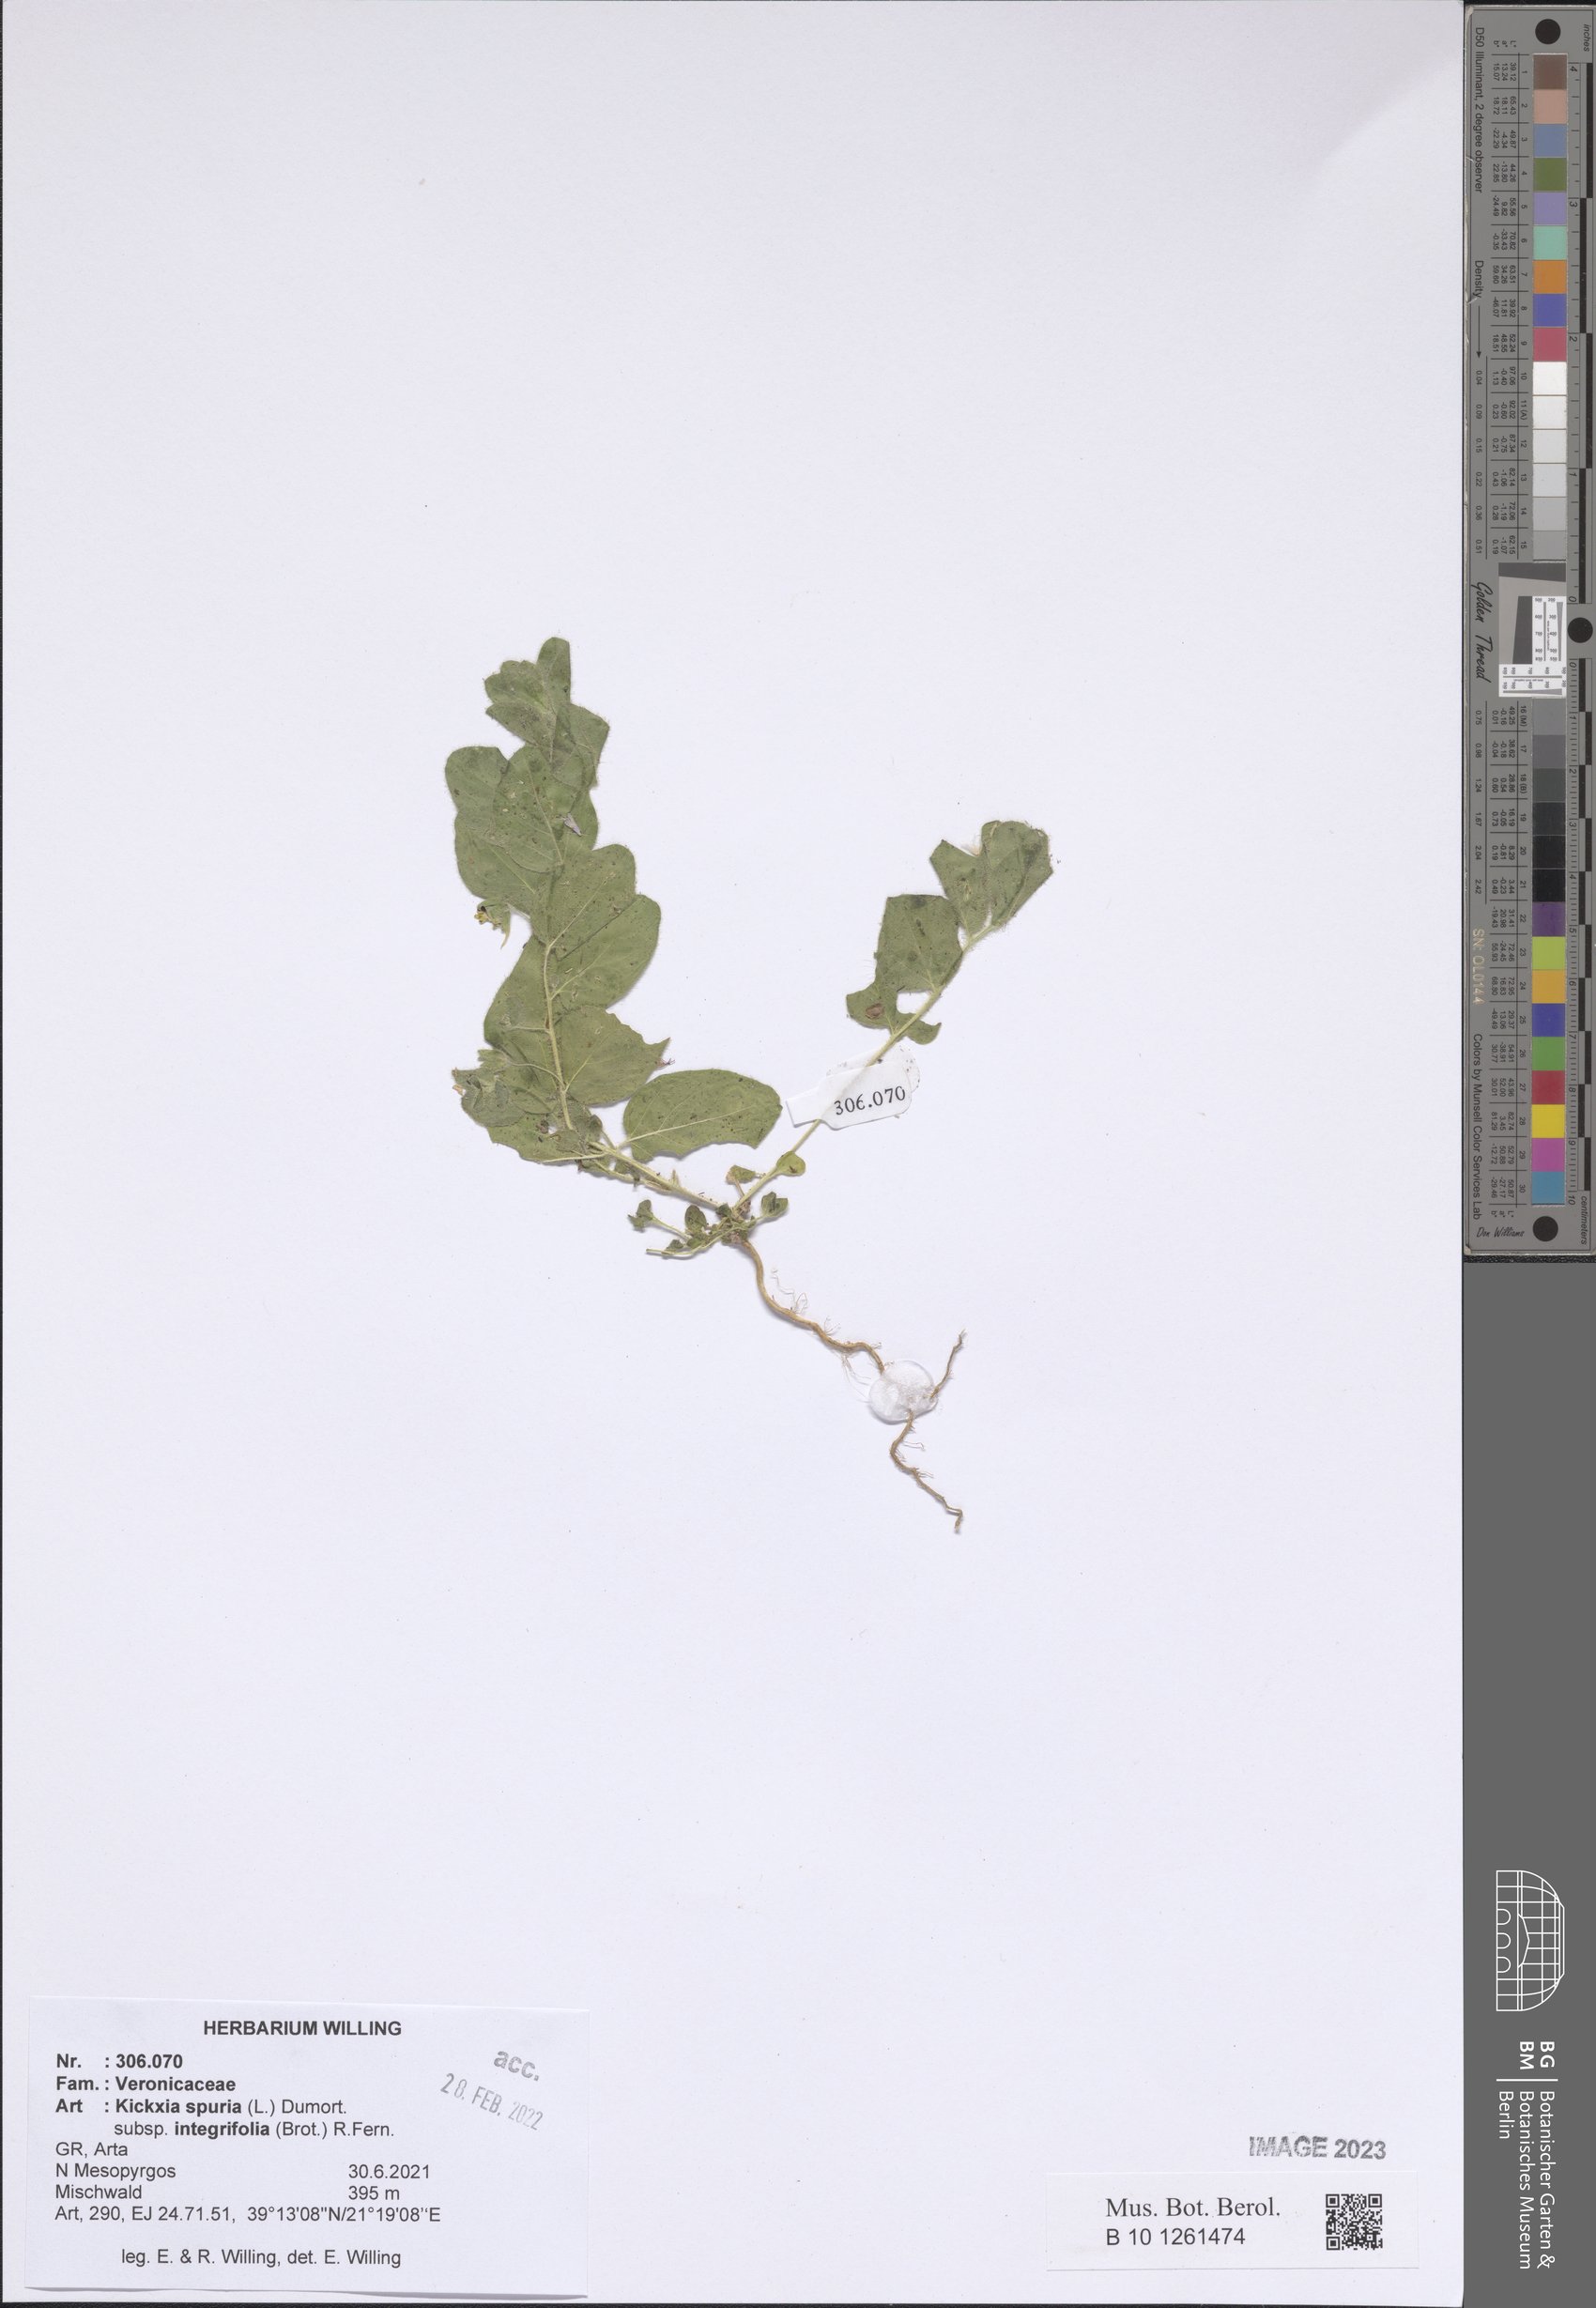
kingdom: Plantae
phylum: Tracheophyta
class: Magnoliopsida
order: Lamiales
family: Plantaginaceae
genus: Kickxia
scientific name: Kickxia spuria
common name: Round-leaved fluellen
